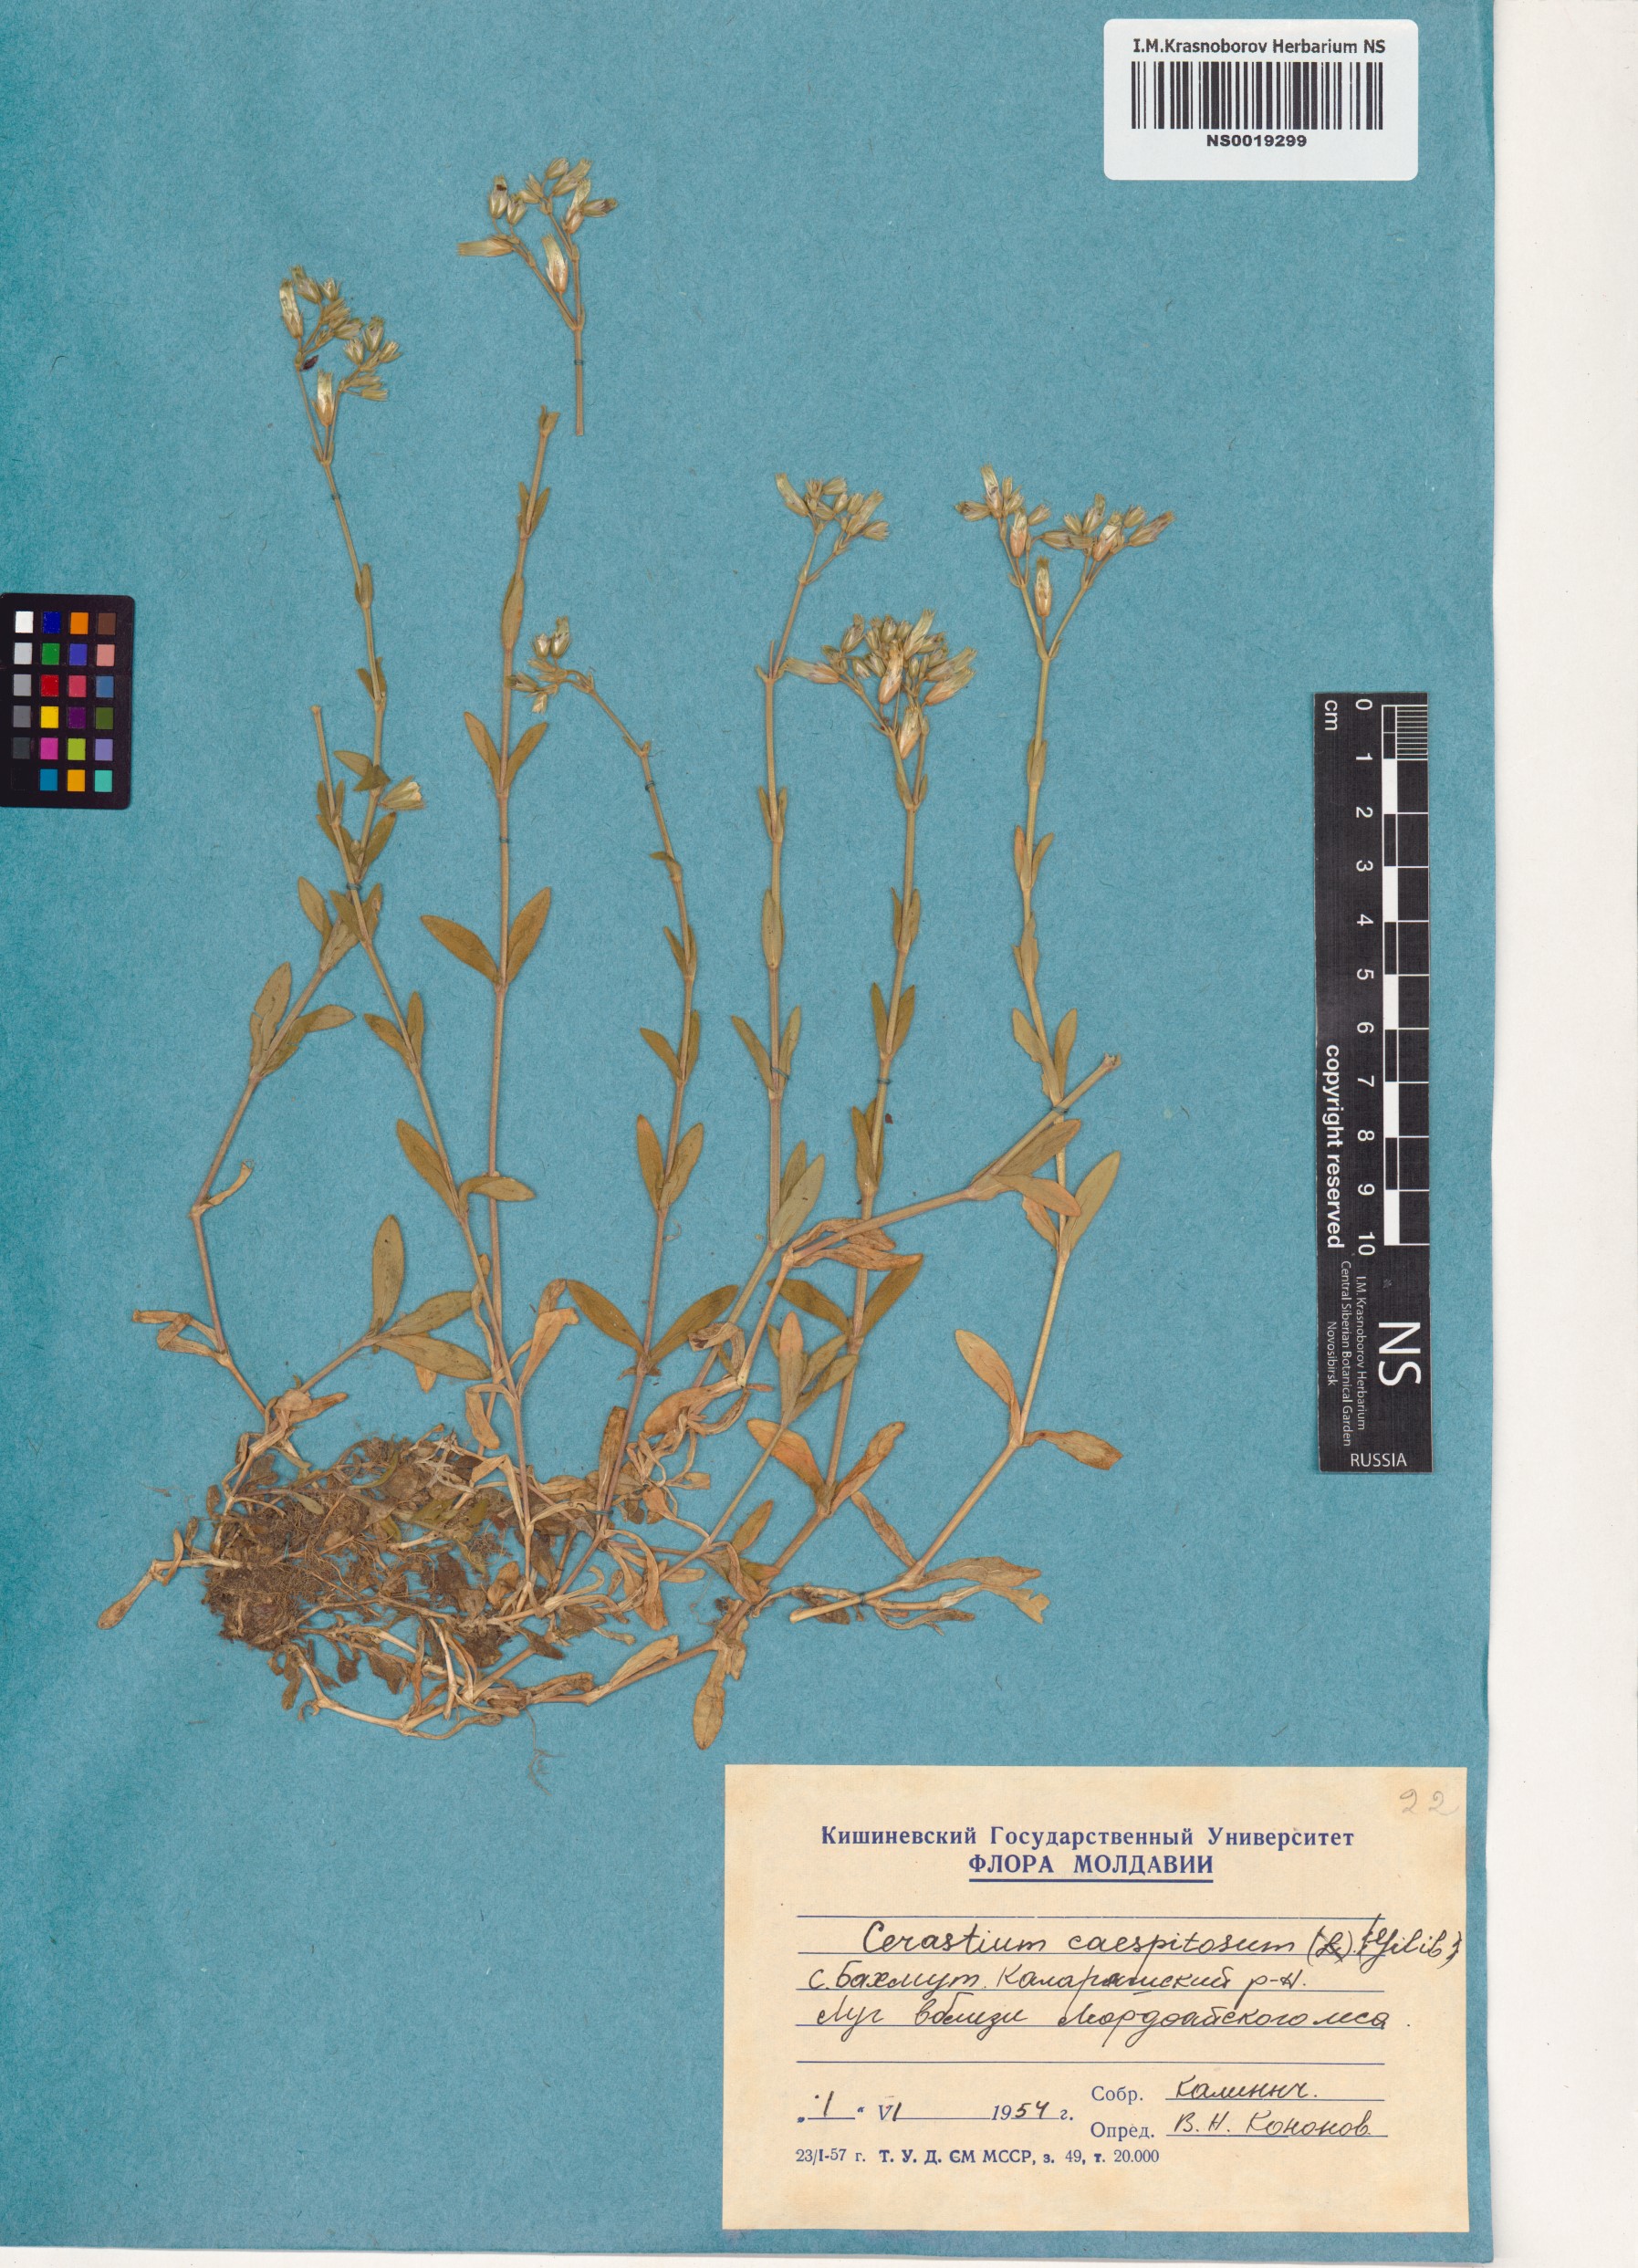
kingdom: Plantae
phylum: Tracheophyta
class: Magnoliopsida
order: Caryophyllales
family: Caryophyllaceae
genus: Cerastium
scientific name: Cerastium
